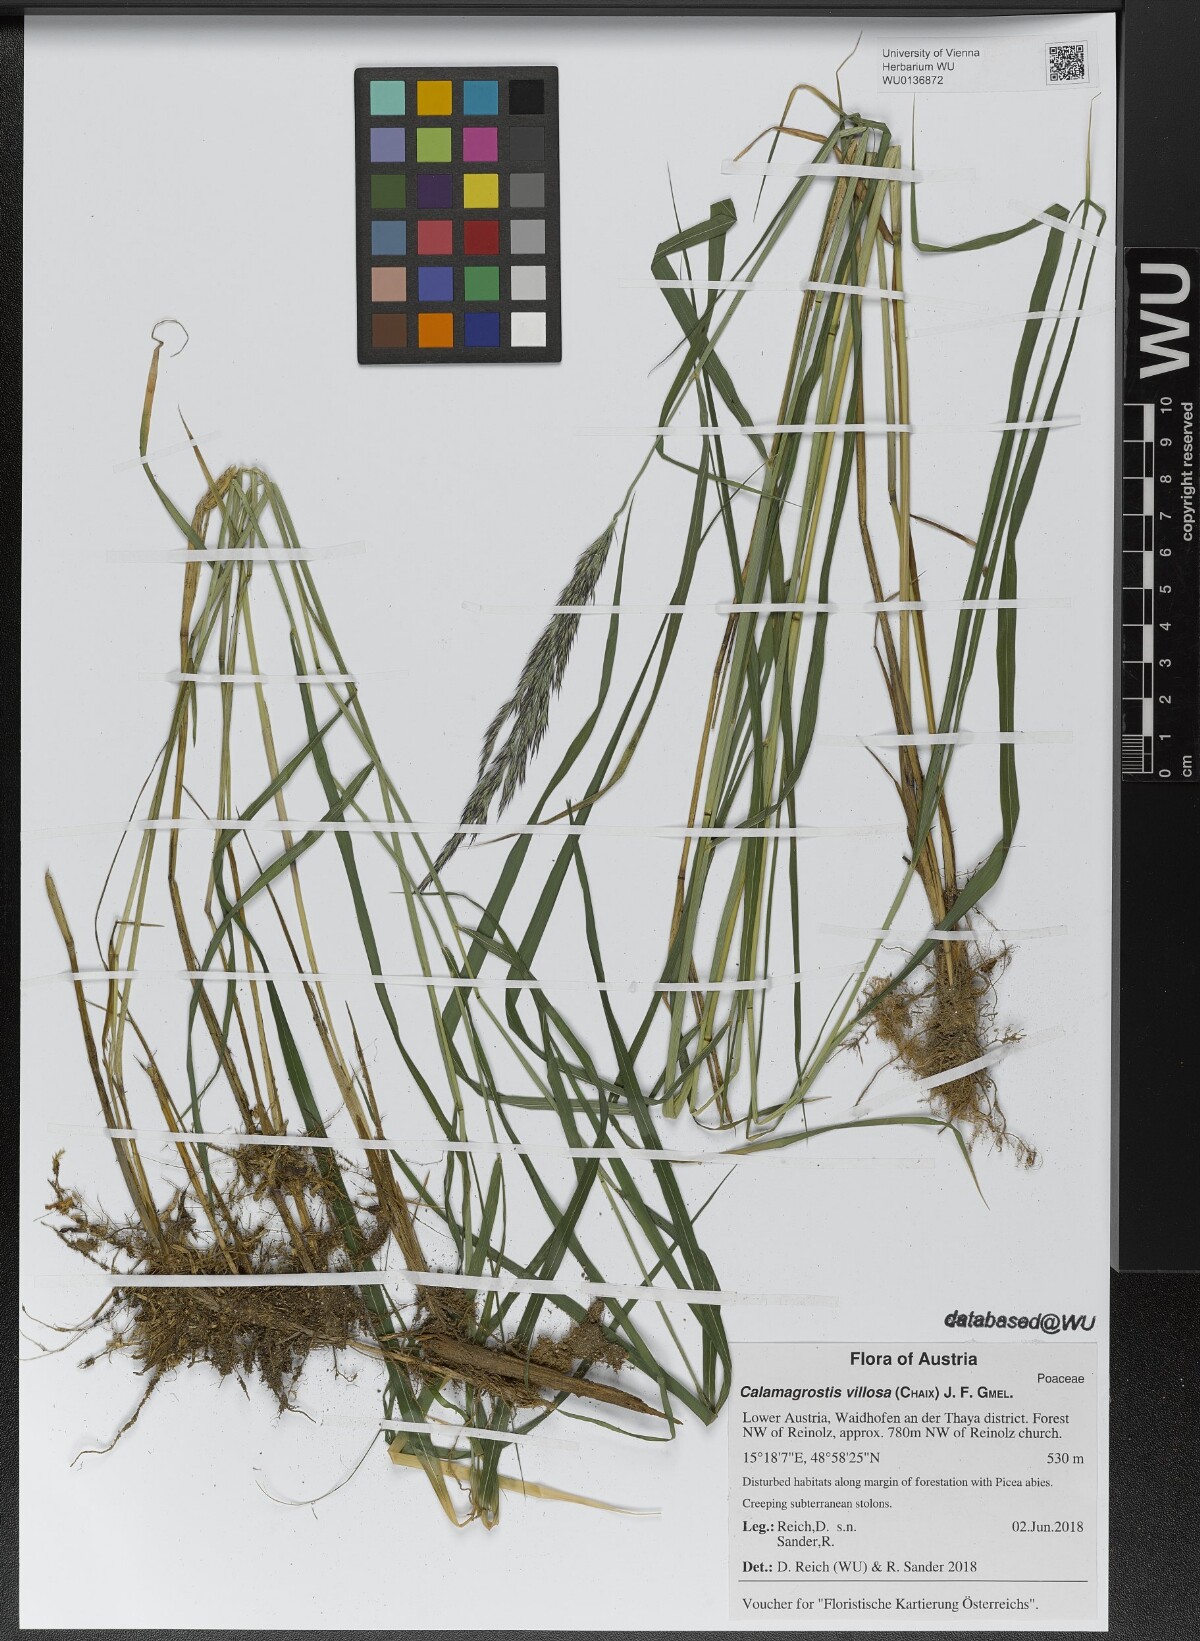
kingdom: Plantae
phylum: Tracheophyta
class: Liliopsida
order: Poales
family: Poaceae
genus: Calamagrostis
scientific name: Calamagrostis villosa
